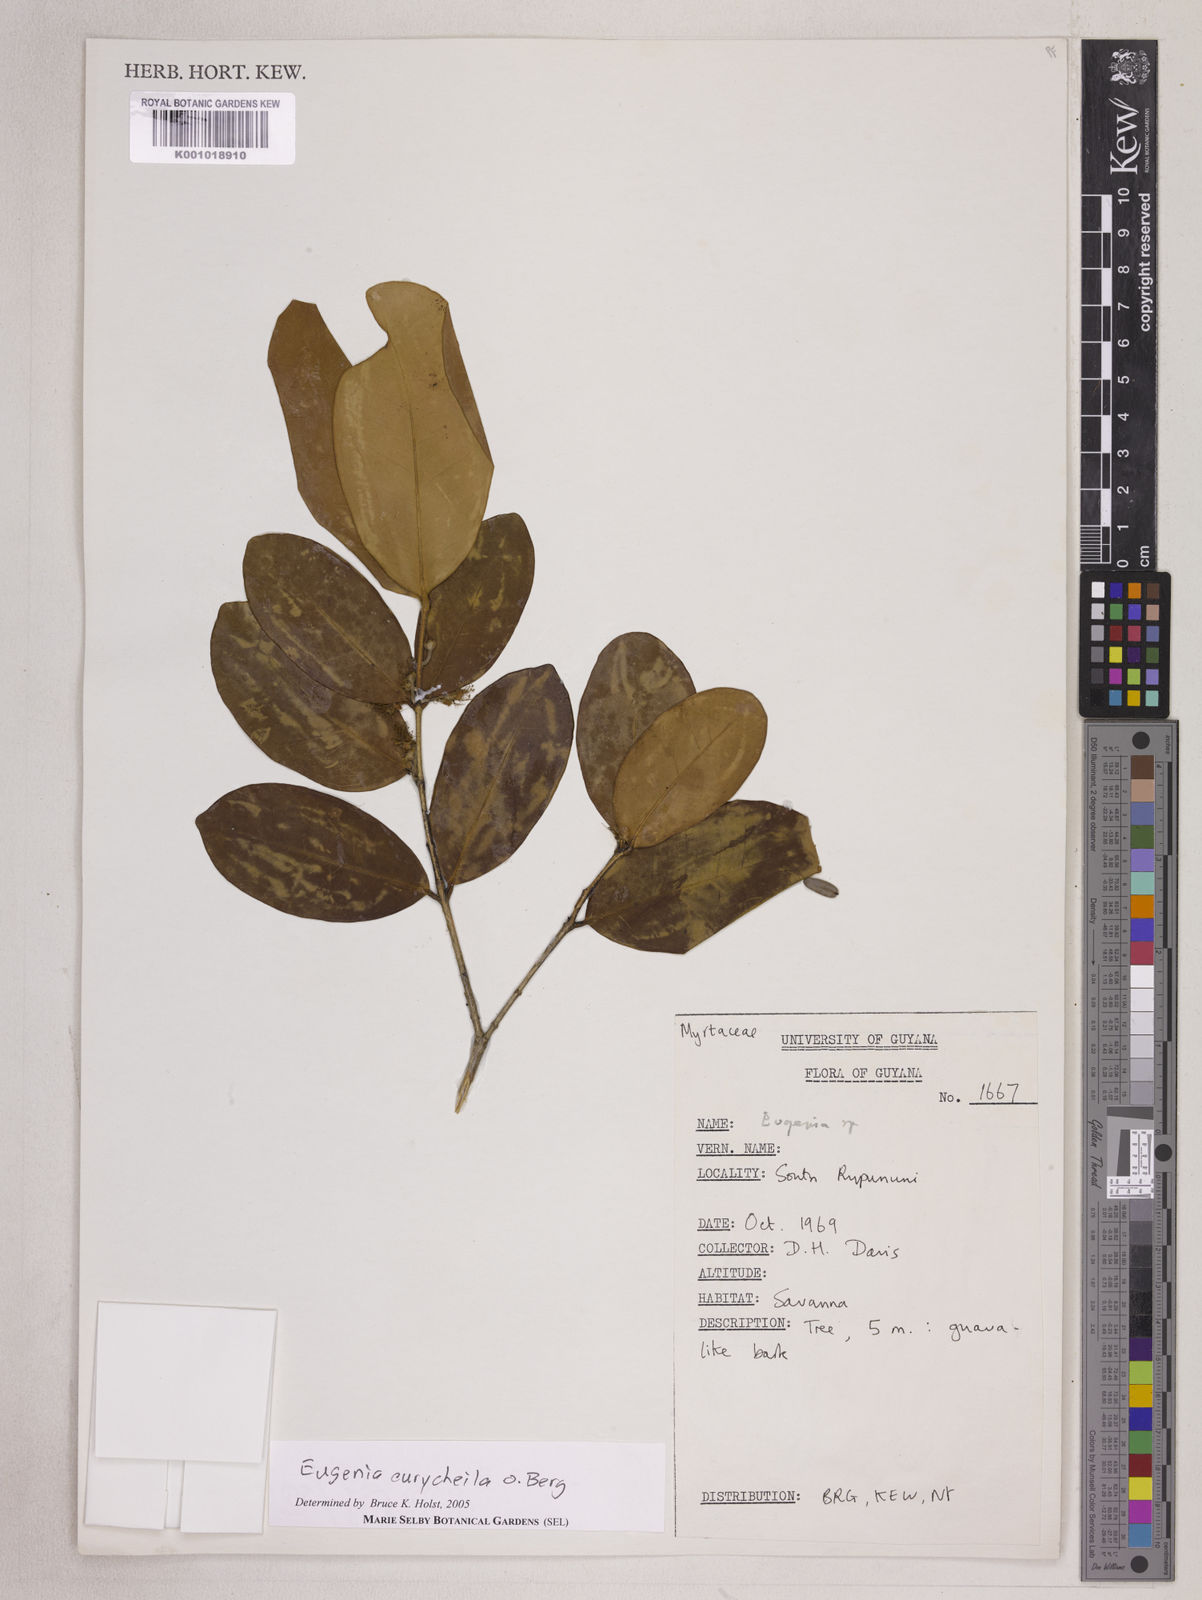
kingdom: Plantae
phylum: Tracheophyta
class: Magnoliopsida
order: Myrtales
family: Myrtaceae
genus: Eugenia
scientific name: Eugenia eurycheila
